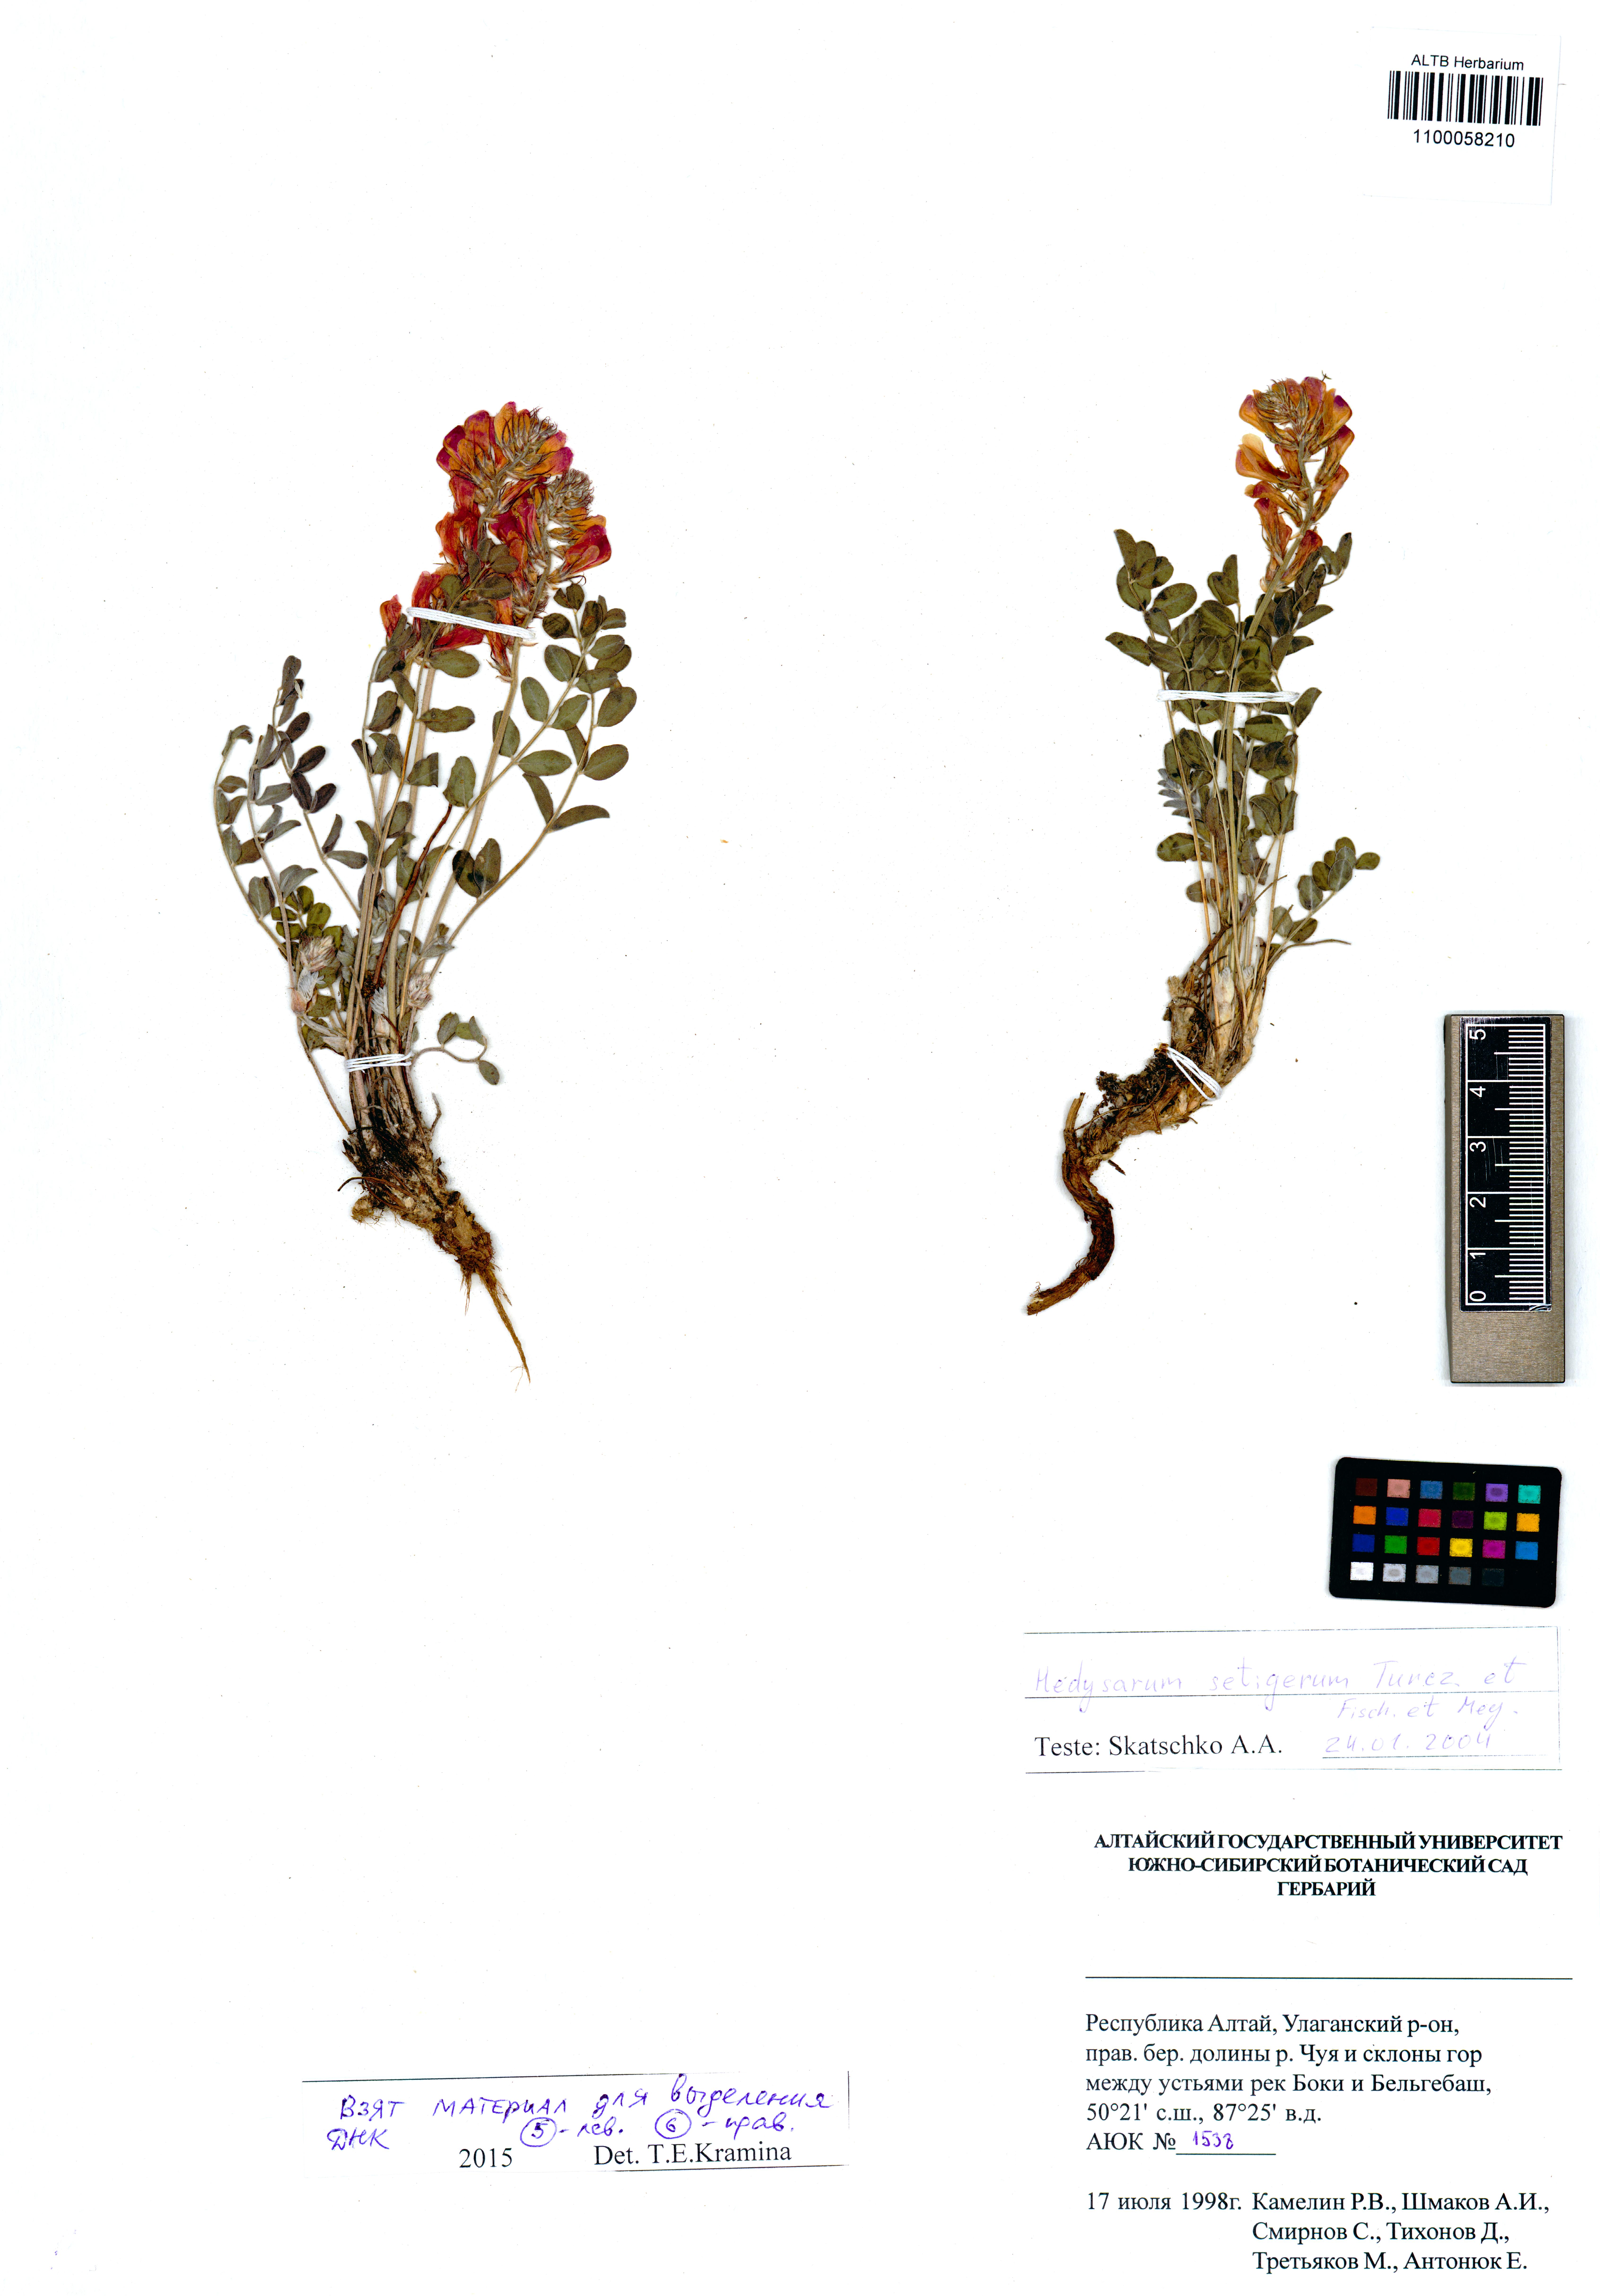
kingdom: Plantae
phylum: Tracheophyta
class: Magnoliopsida
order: Fabales
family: Fabaceae
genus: Hedysarum
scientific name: Hedysarum setigerum
